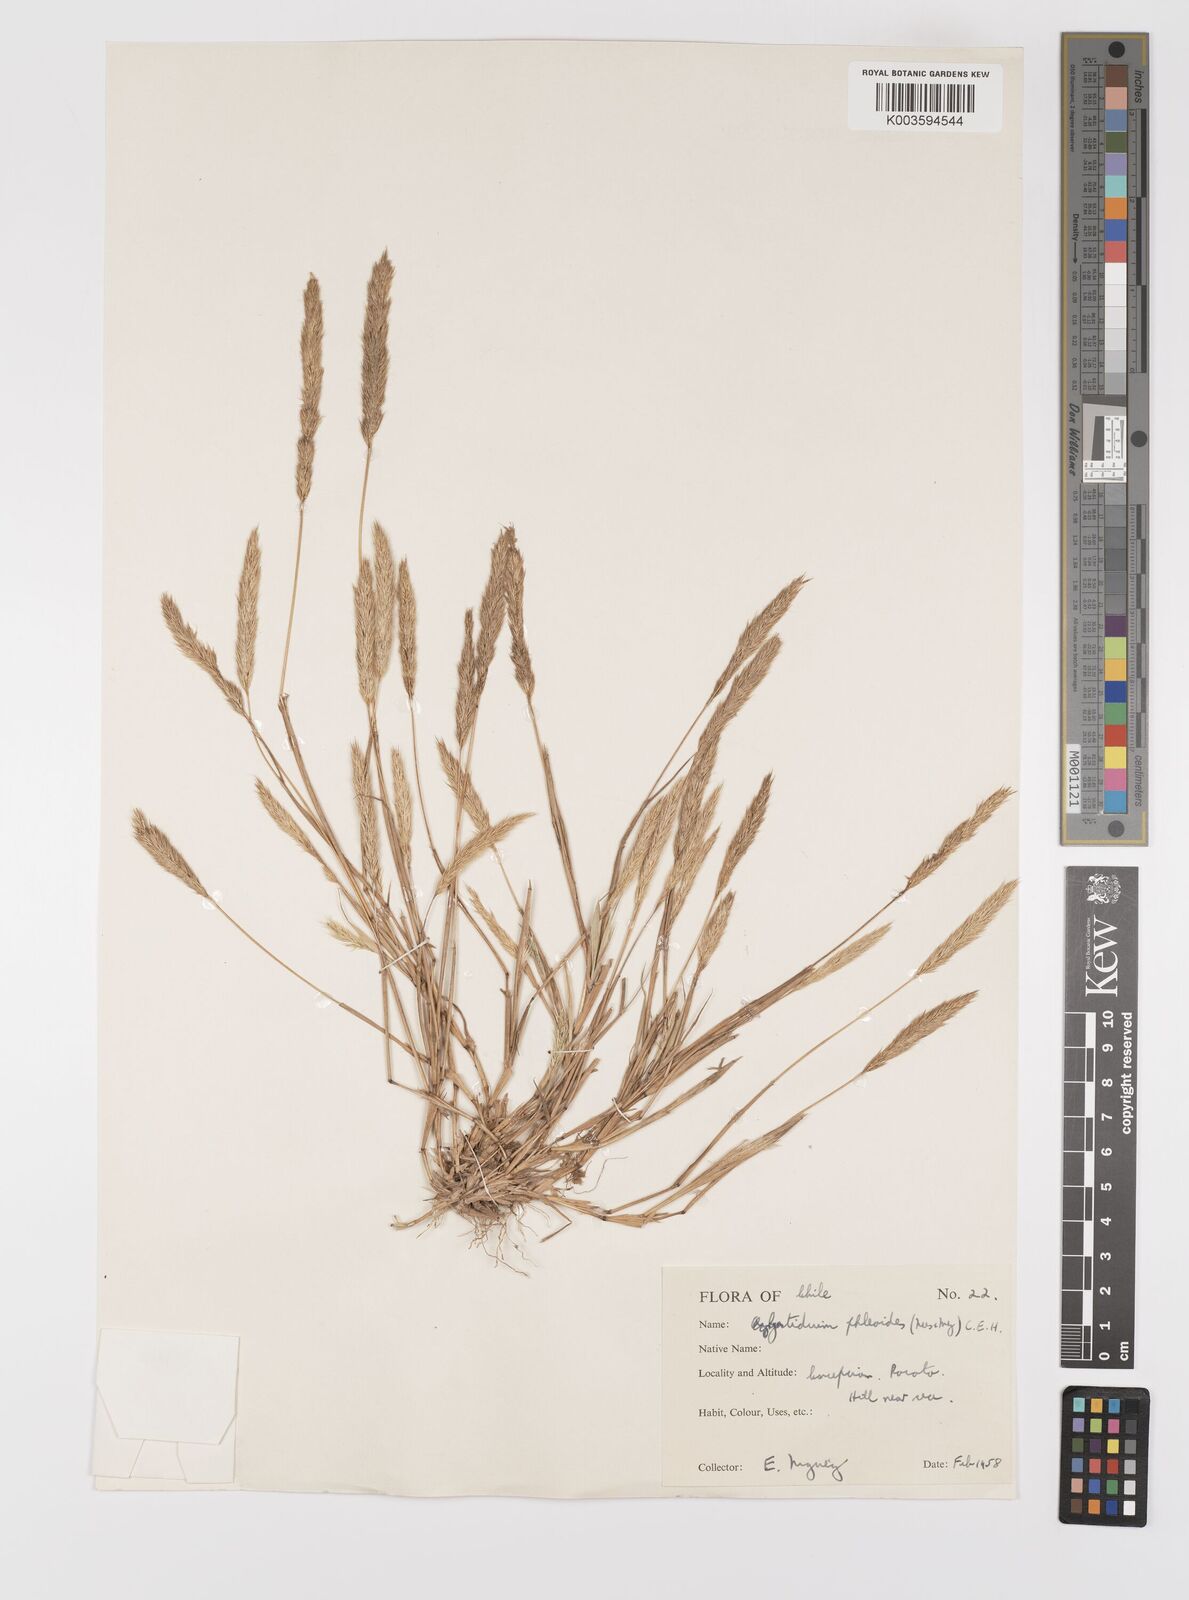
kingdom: Plantae
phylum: Tracheophyta
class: Liliopsida
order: Poales
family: Poaceae
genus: Gastridium
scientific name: Gastridium phleoides
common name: Nit grass
